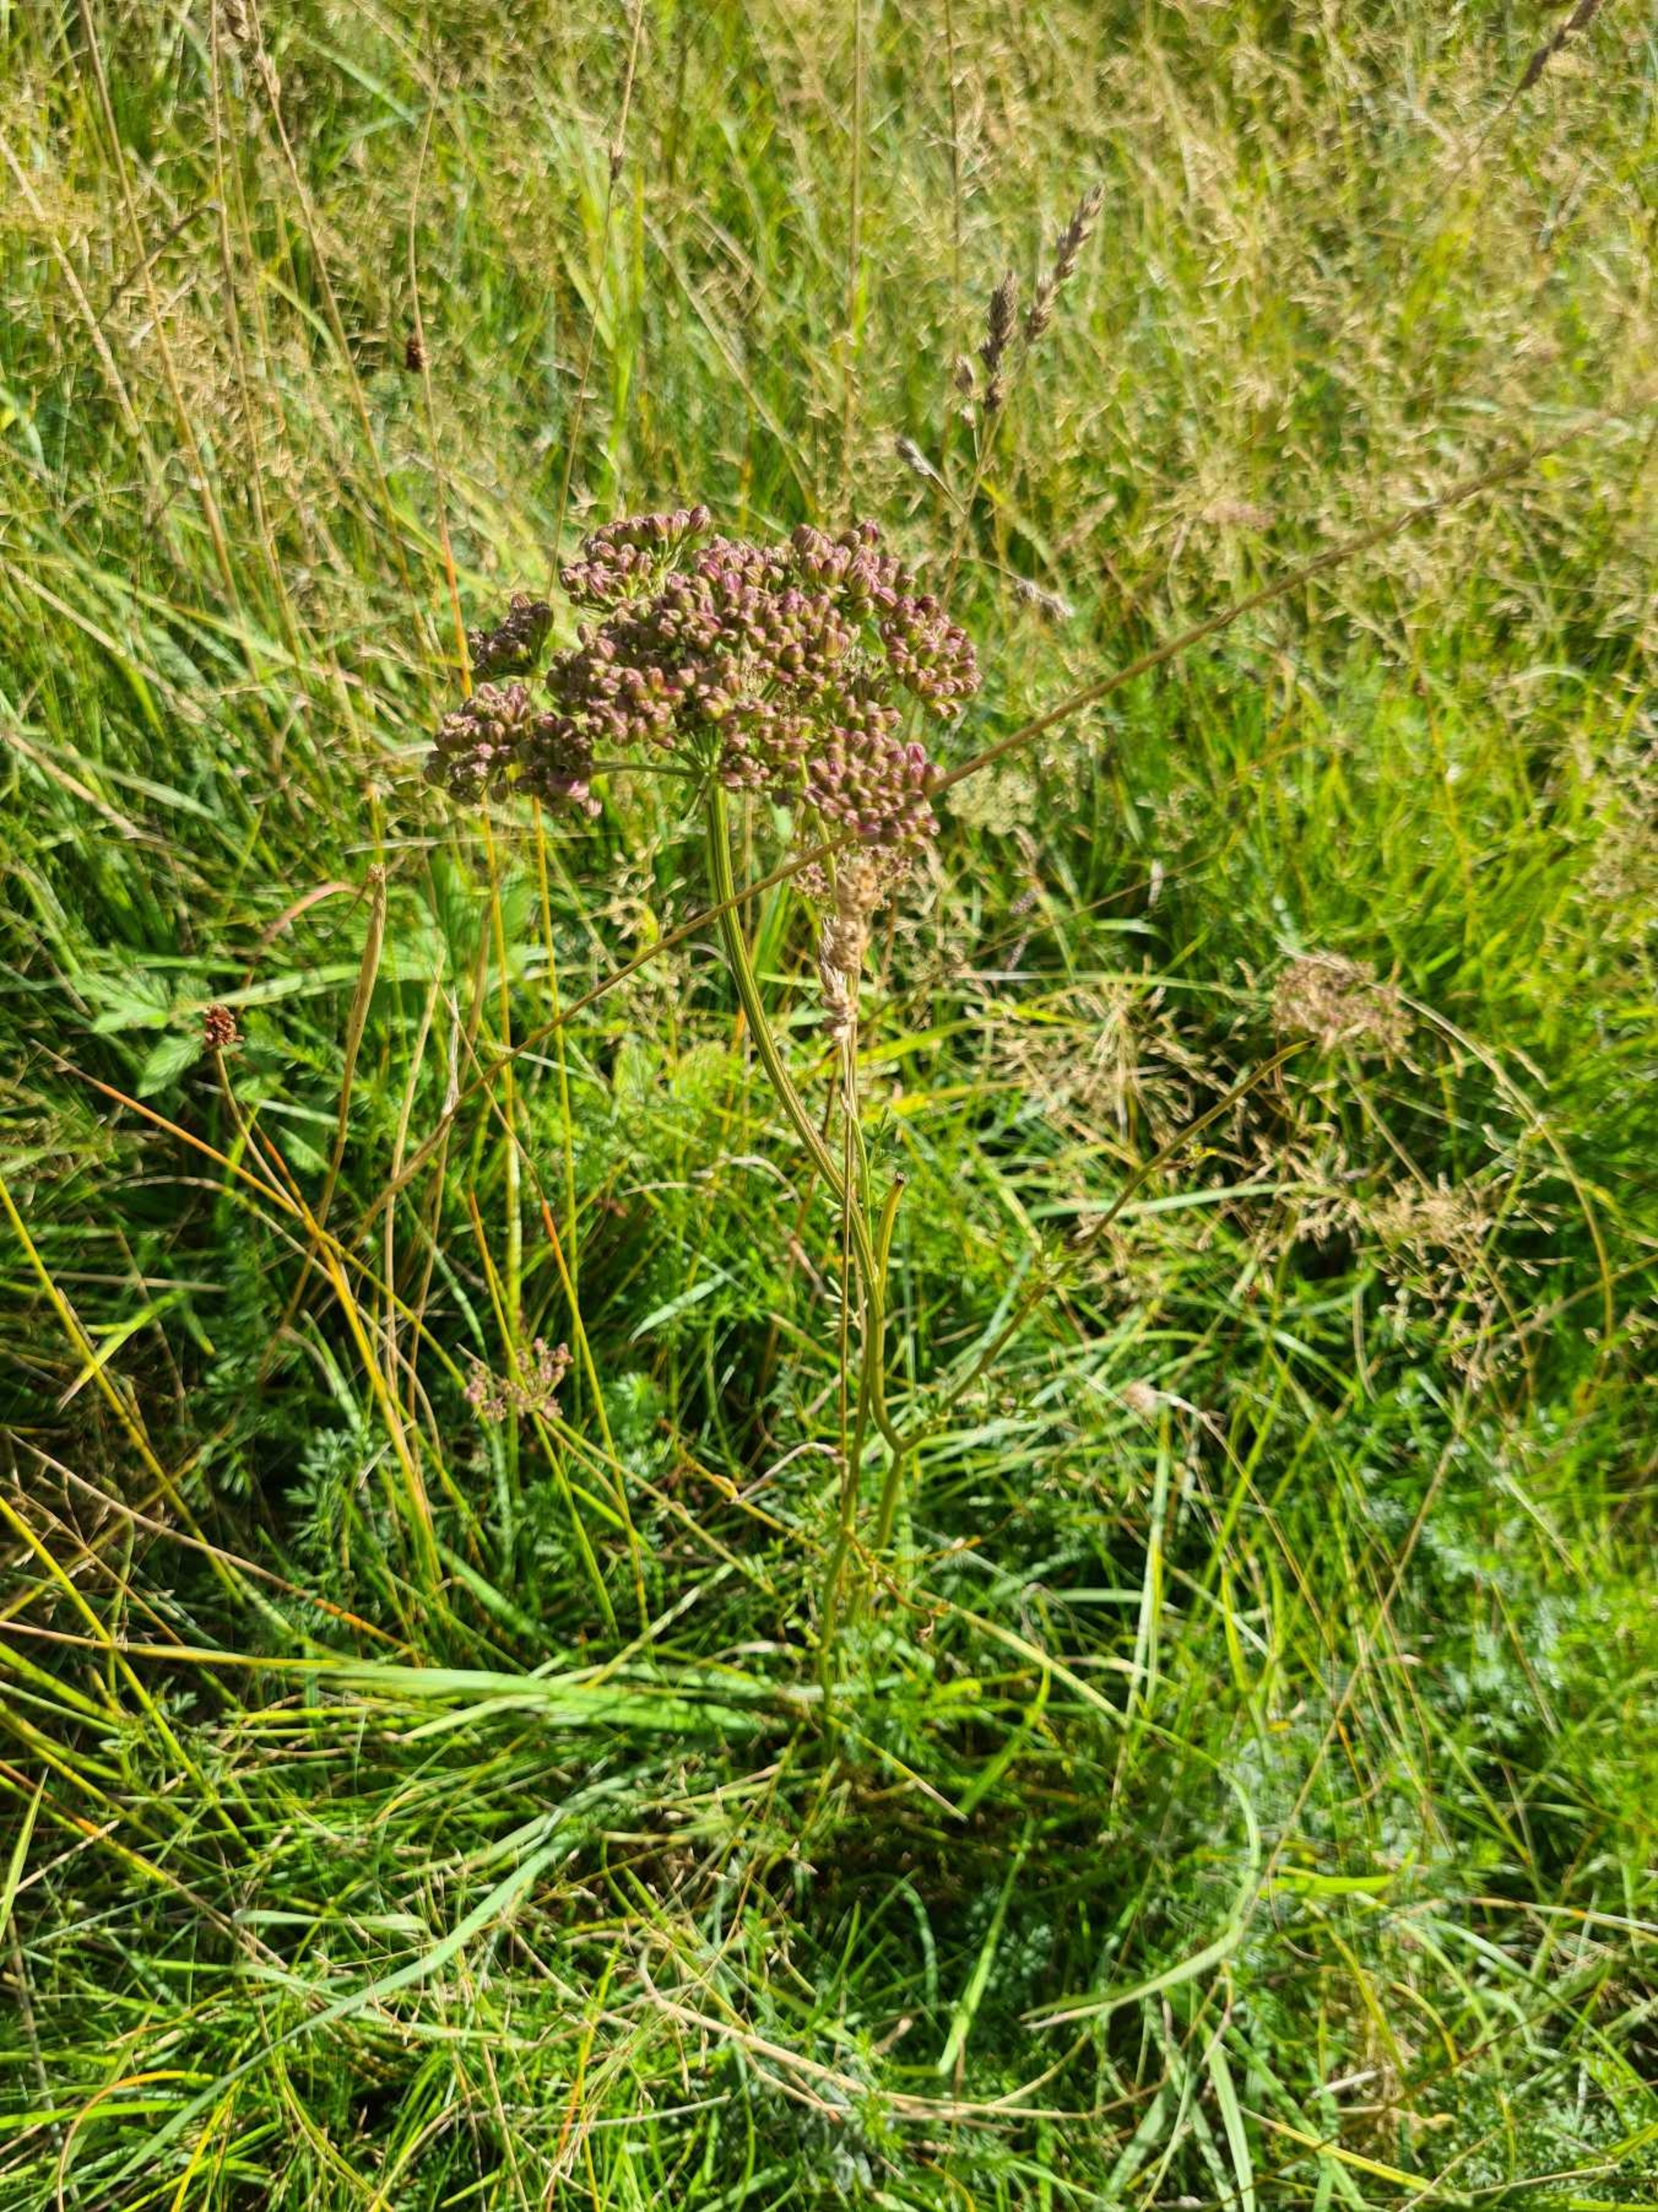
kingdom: Plantae
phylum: Tracheophyta
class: Magnoliopsida
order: Apiales
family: Apiaceae
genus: Selinum
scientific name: Selinum carvifolia
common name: Seline
